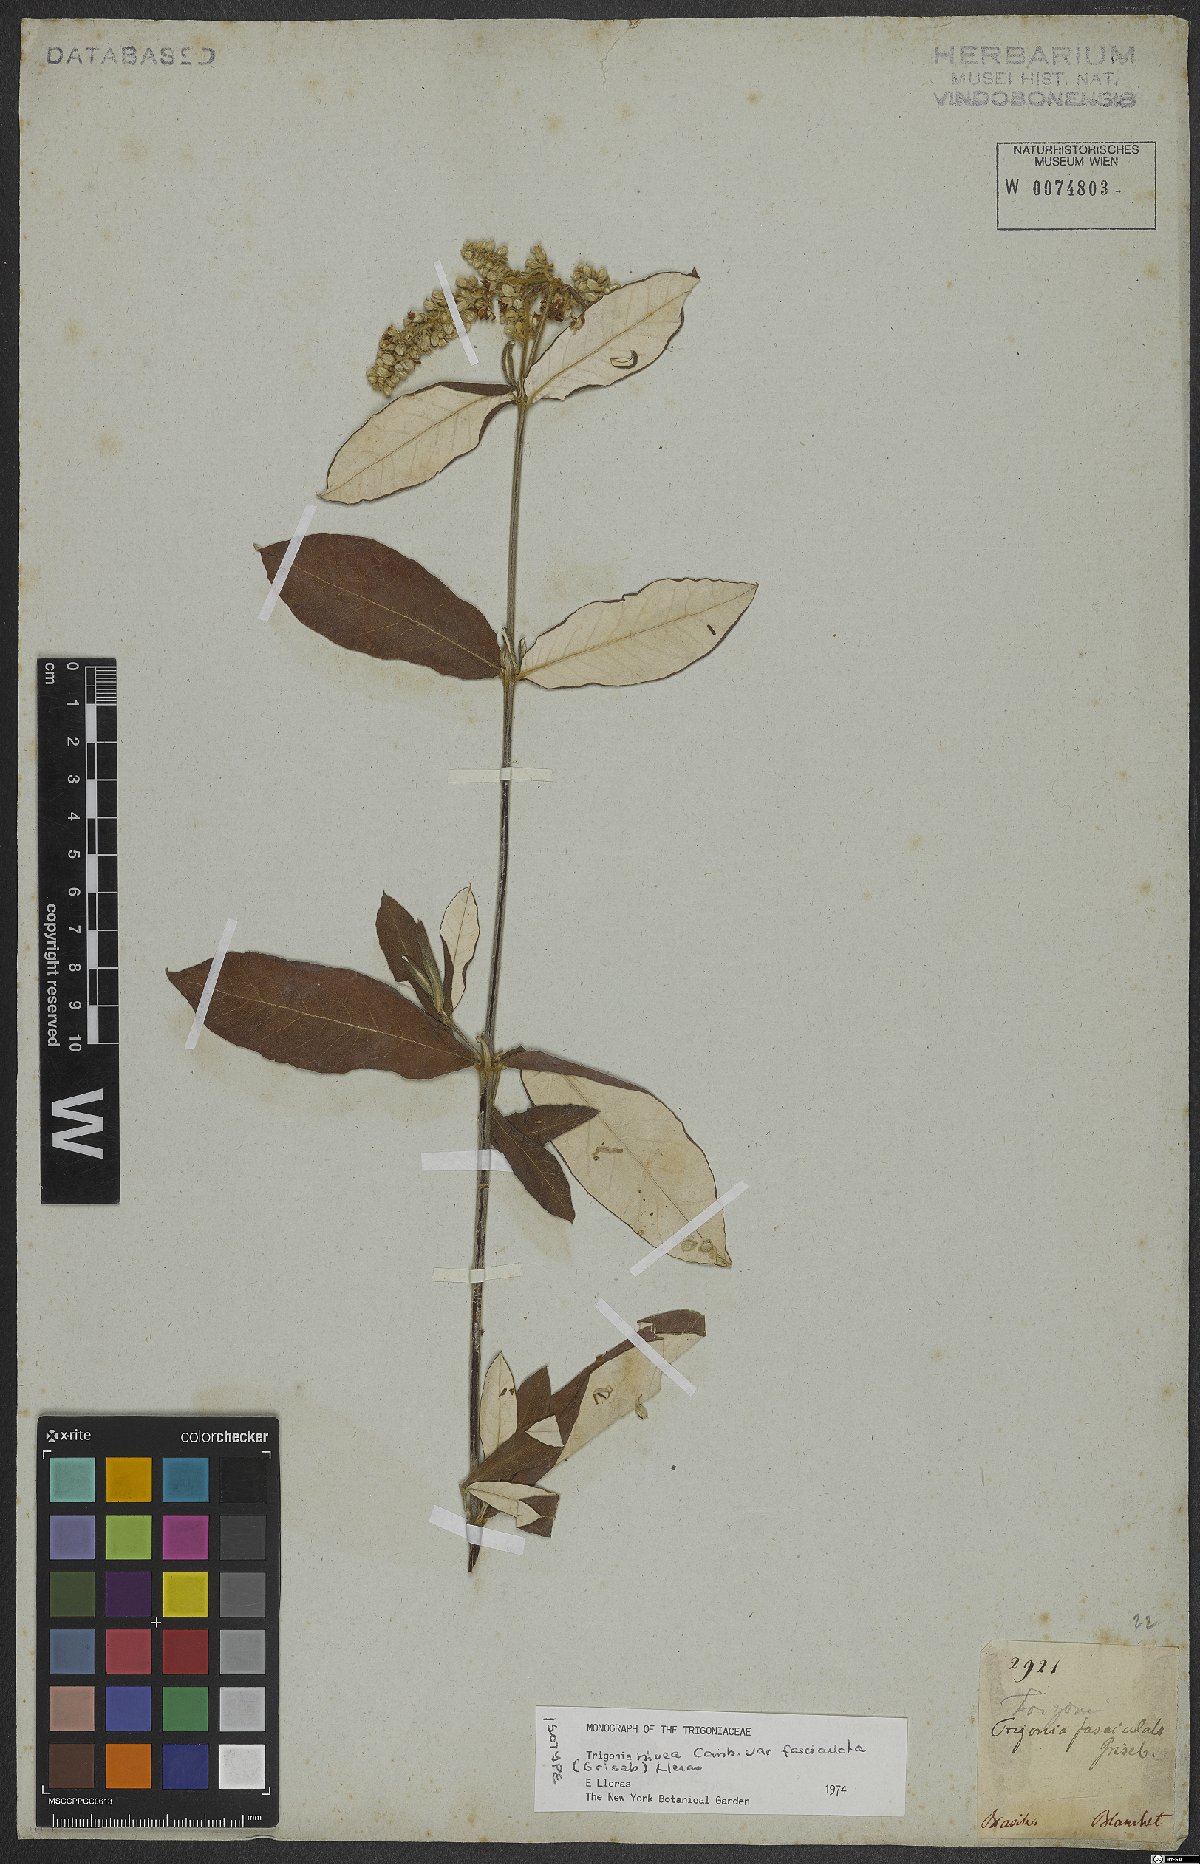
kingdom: Plantae
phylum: Tracheophyta
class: Magnoliopsida
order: Malpighiales
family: Trigoniaceae
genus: Trigonia
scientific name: Trigonia nivea
